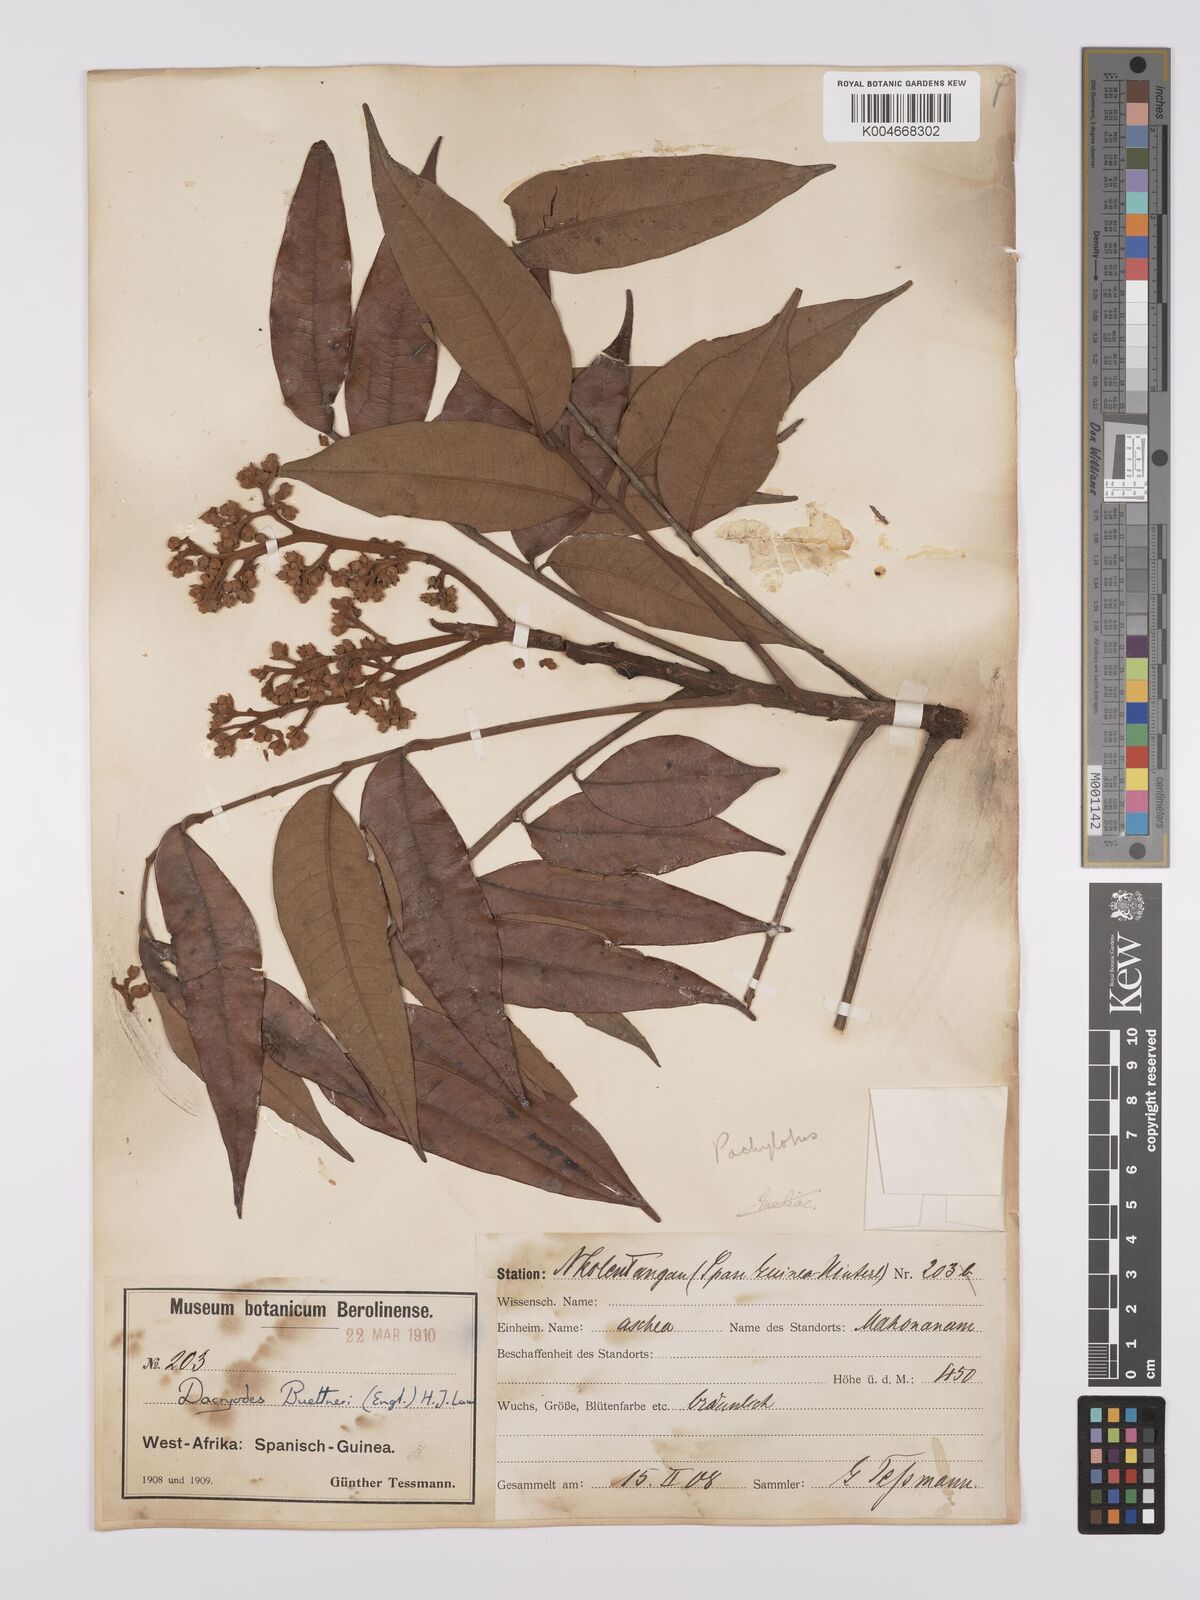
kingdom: Plantae
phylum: Tracheophyta
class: Magnoliopsida
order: Sapindales
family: Burseraceae
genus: Pachylobus
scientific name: Pachylobus buettneri
